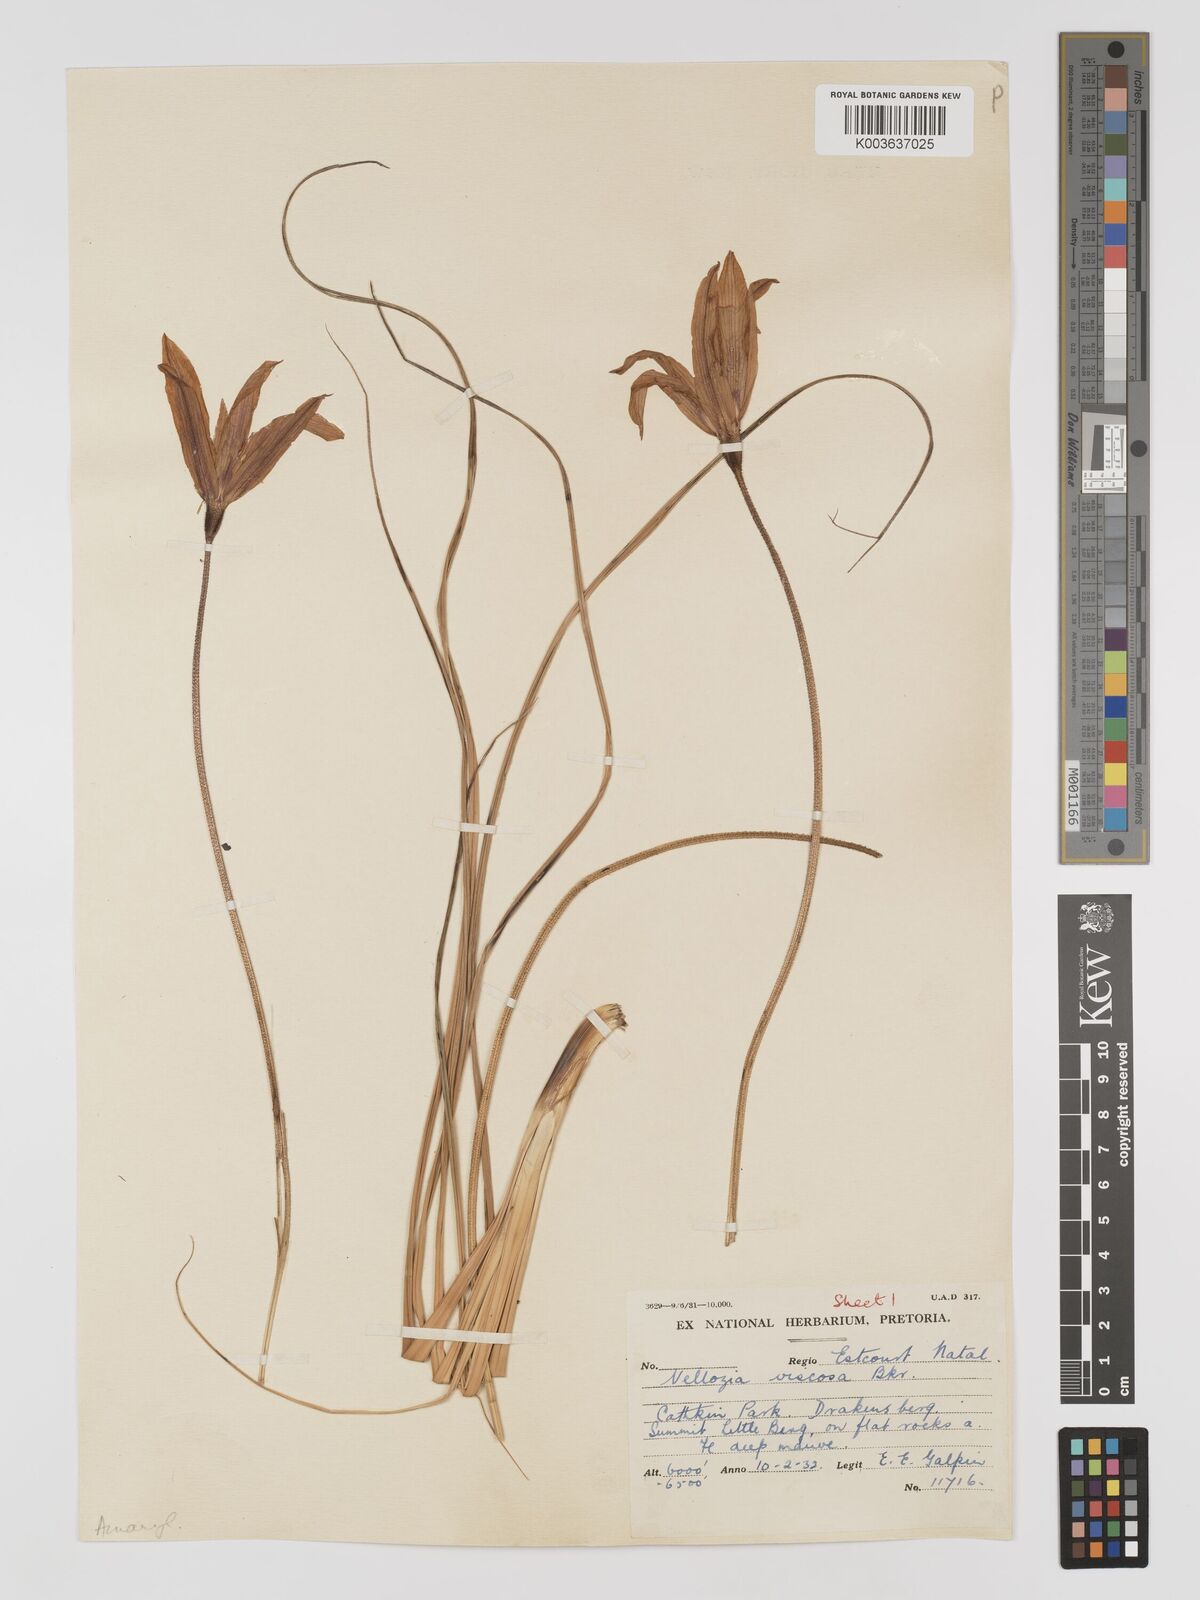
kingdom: Plantae
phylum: Tracheophyta
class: Liliopsida
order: Pandanales
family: Velloziaceae
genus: Xerophyta
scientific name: Xerophyta viscosa
